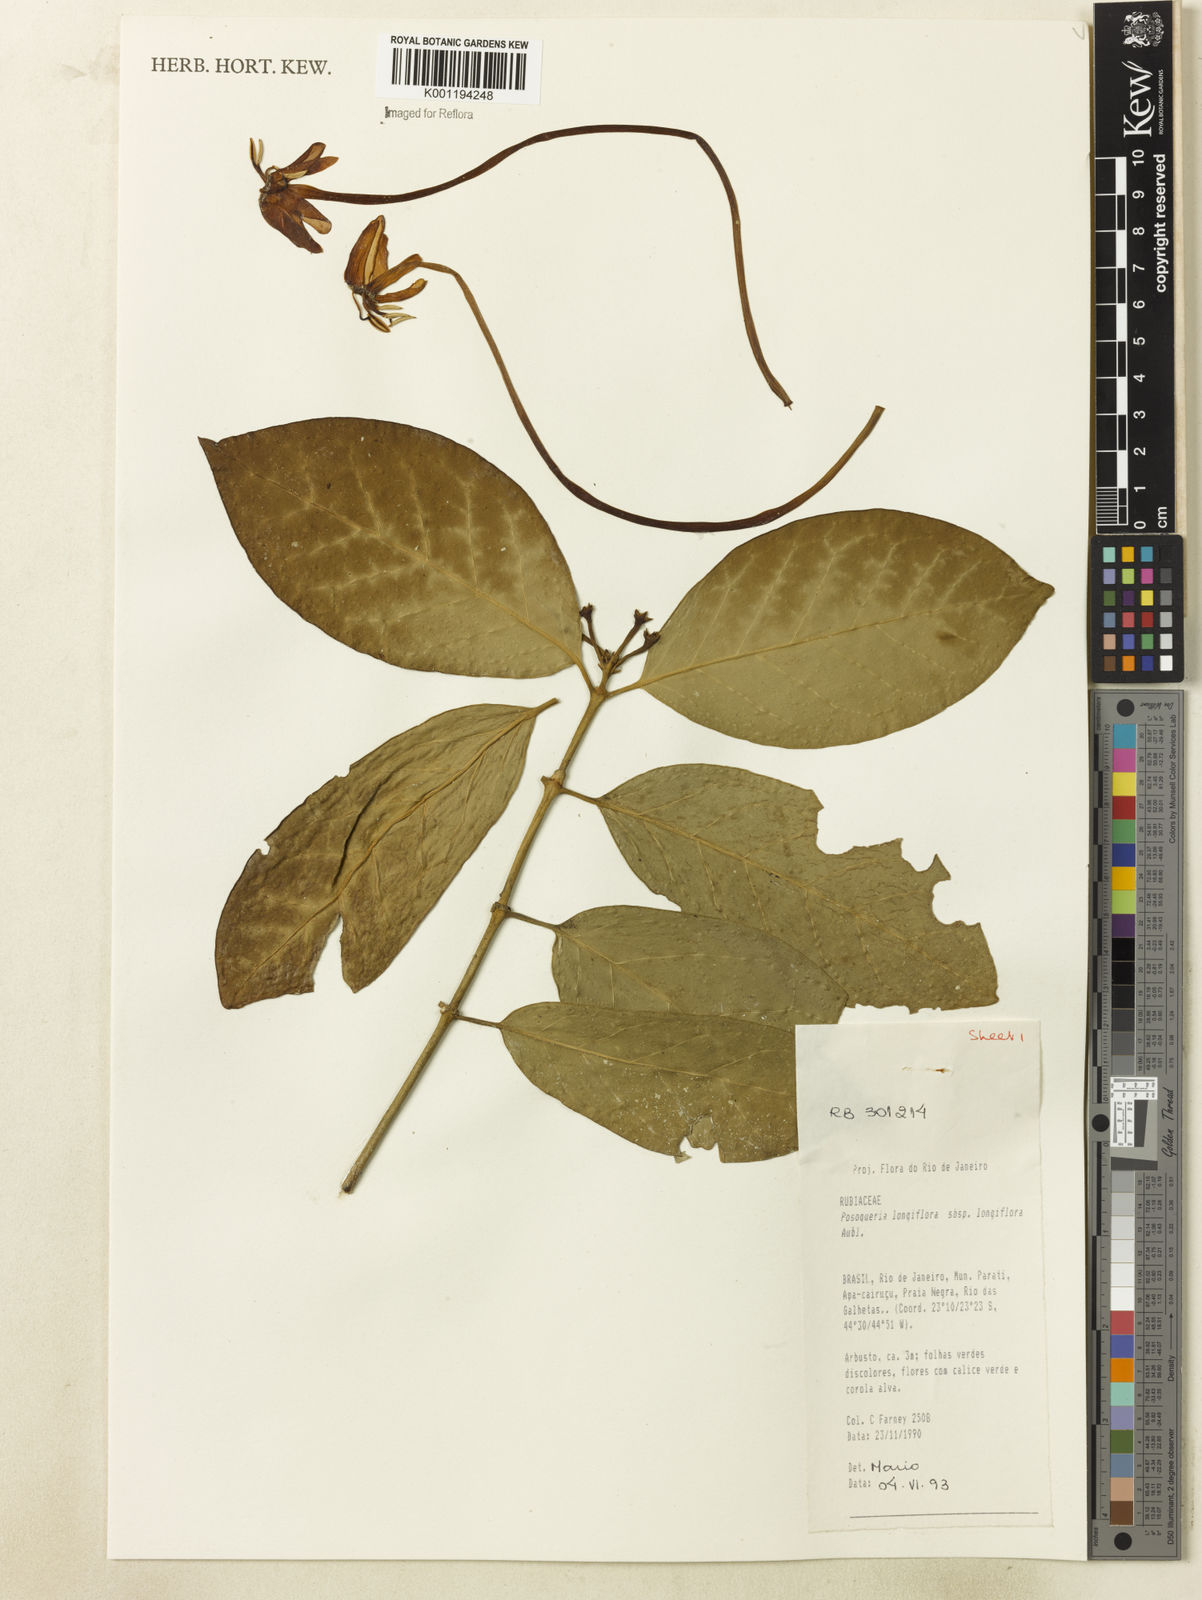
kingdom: Plantae
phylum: Tracheophyta
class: Magnoliopsida
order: Gentianales
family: Rubiaceae
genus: Posoqueria
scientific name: Posoqueria longiflora
